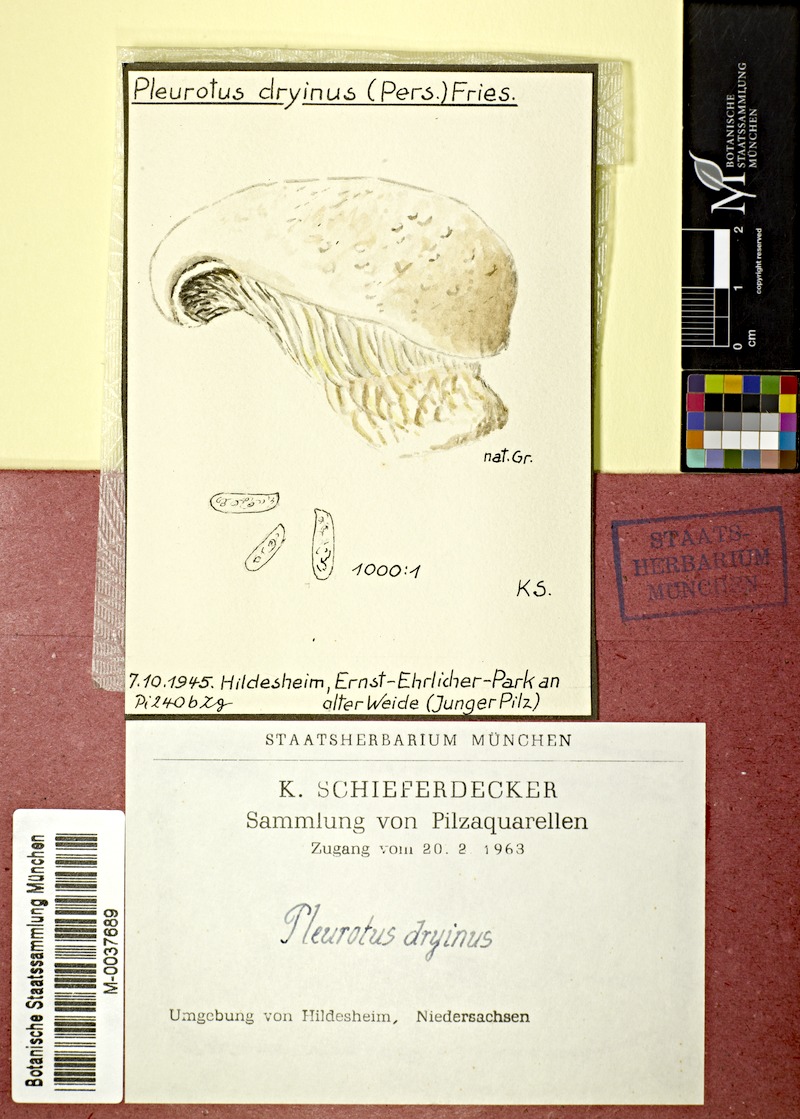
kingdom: Fungi
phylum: Basidiomycota
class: Agaricomycetes
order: Agaricales
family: Pleurotaceae
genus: Pleurotus
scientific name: Pleurotus dryinus
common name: Veiled oyster
